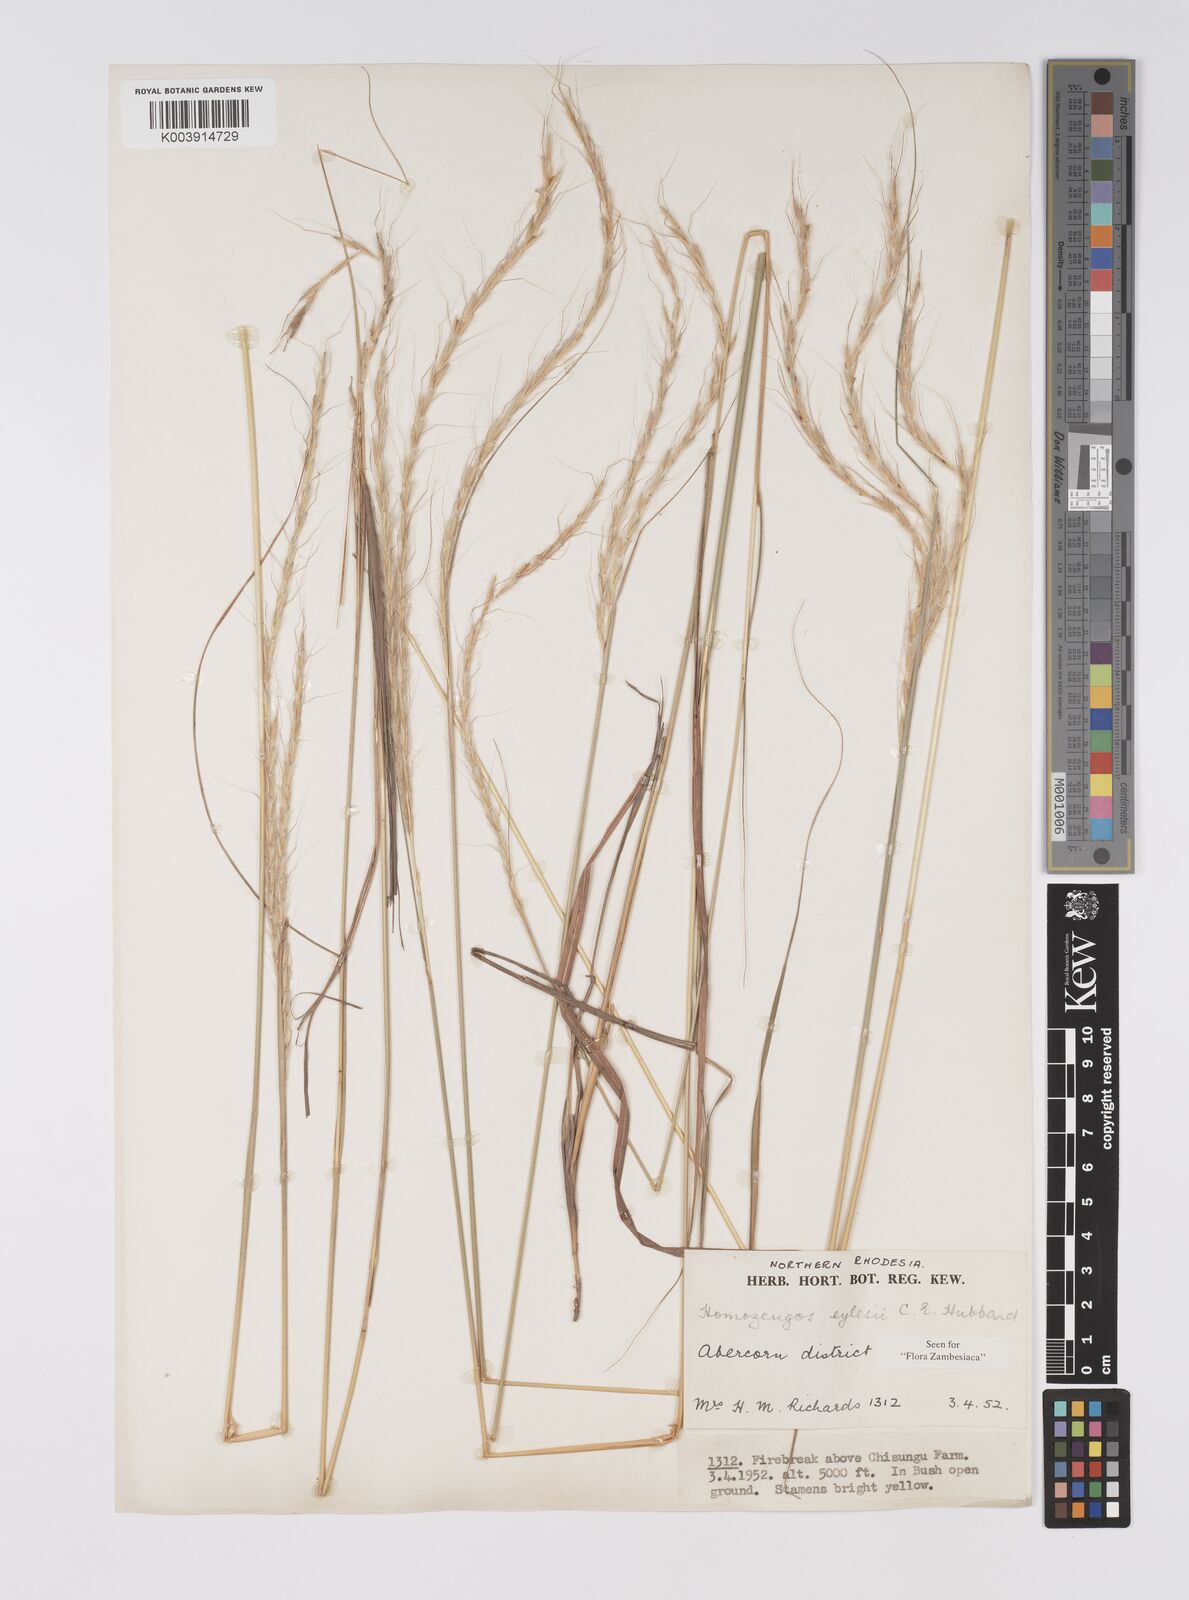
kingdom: Plantae
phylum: Tracheophyta
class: Liliopsida
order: Poales
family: Poaceae
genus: Homozeugos
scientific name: Homozeugos eylesii
